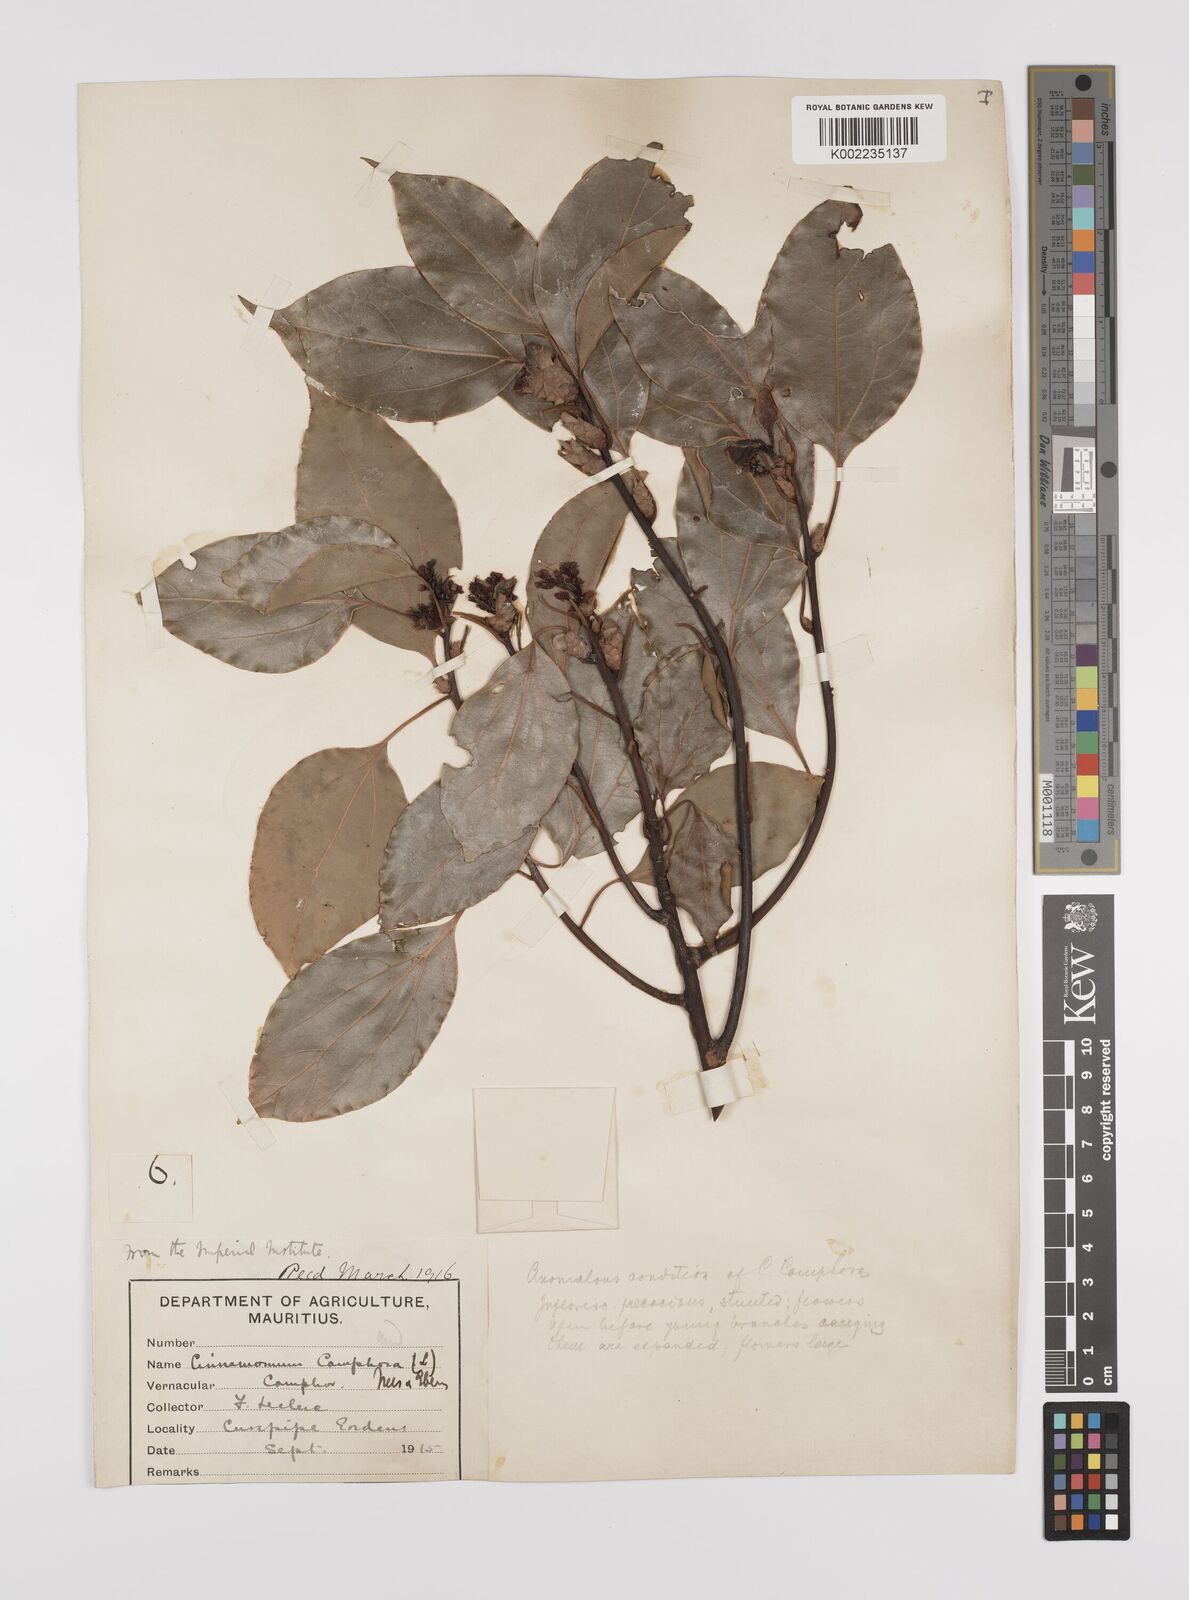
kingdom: Plantae
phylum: Tracheophyta
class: Magnoliopsida
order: Laurales
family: Lauraceae
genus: Cinnamomum
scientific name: Cinnamomum camphora
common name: Camphortree
